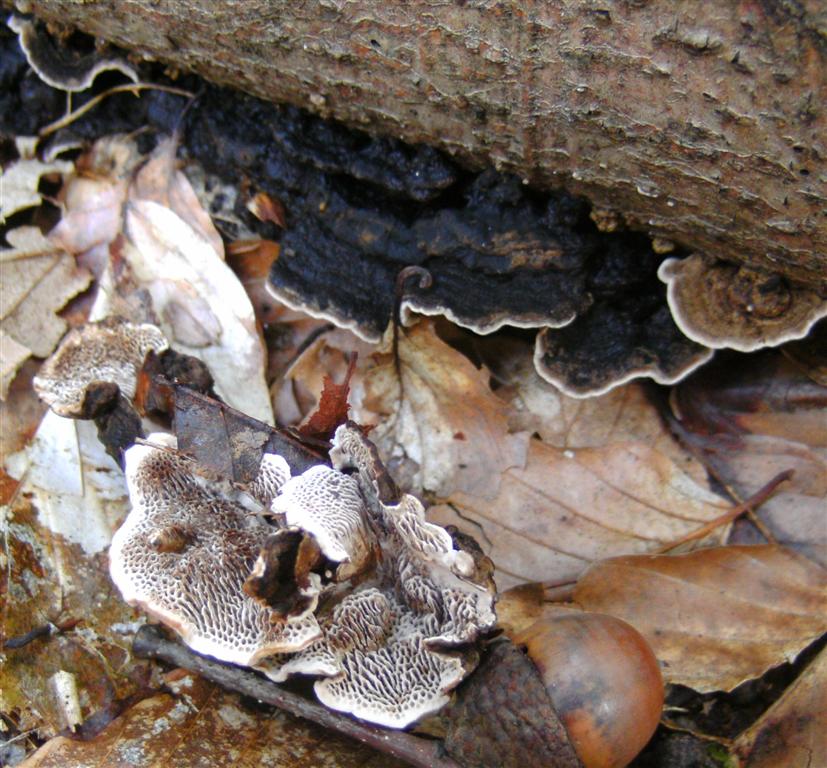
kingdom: Fungi
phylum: Basidiomycota
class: Agaricomycetes
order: Polyporales
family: Polyporaceae
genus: Podofomes
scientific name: Podofomes mollis
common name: blød begporesvamp
